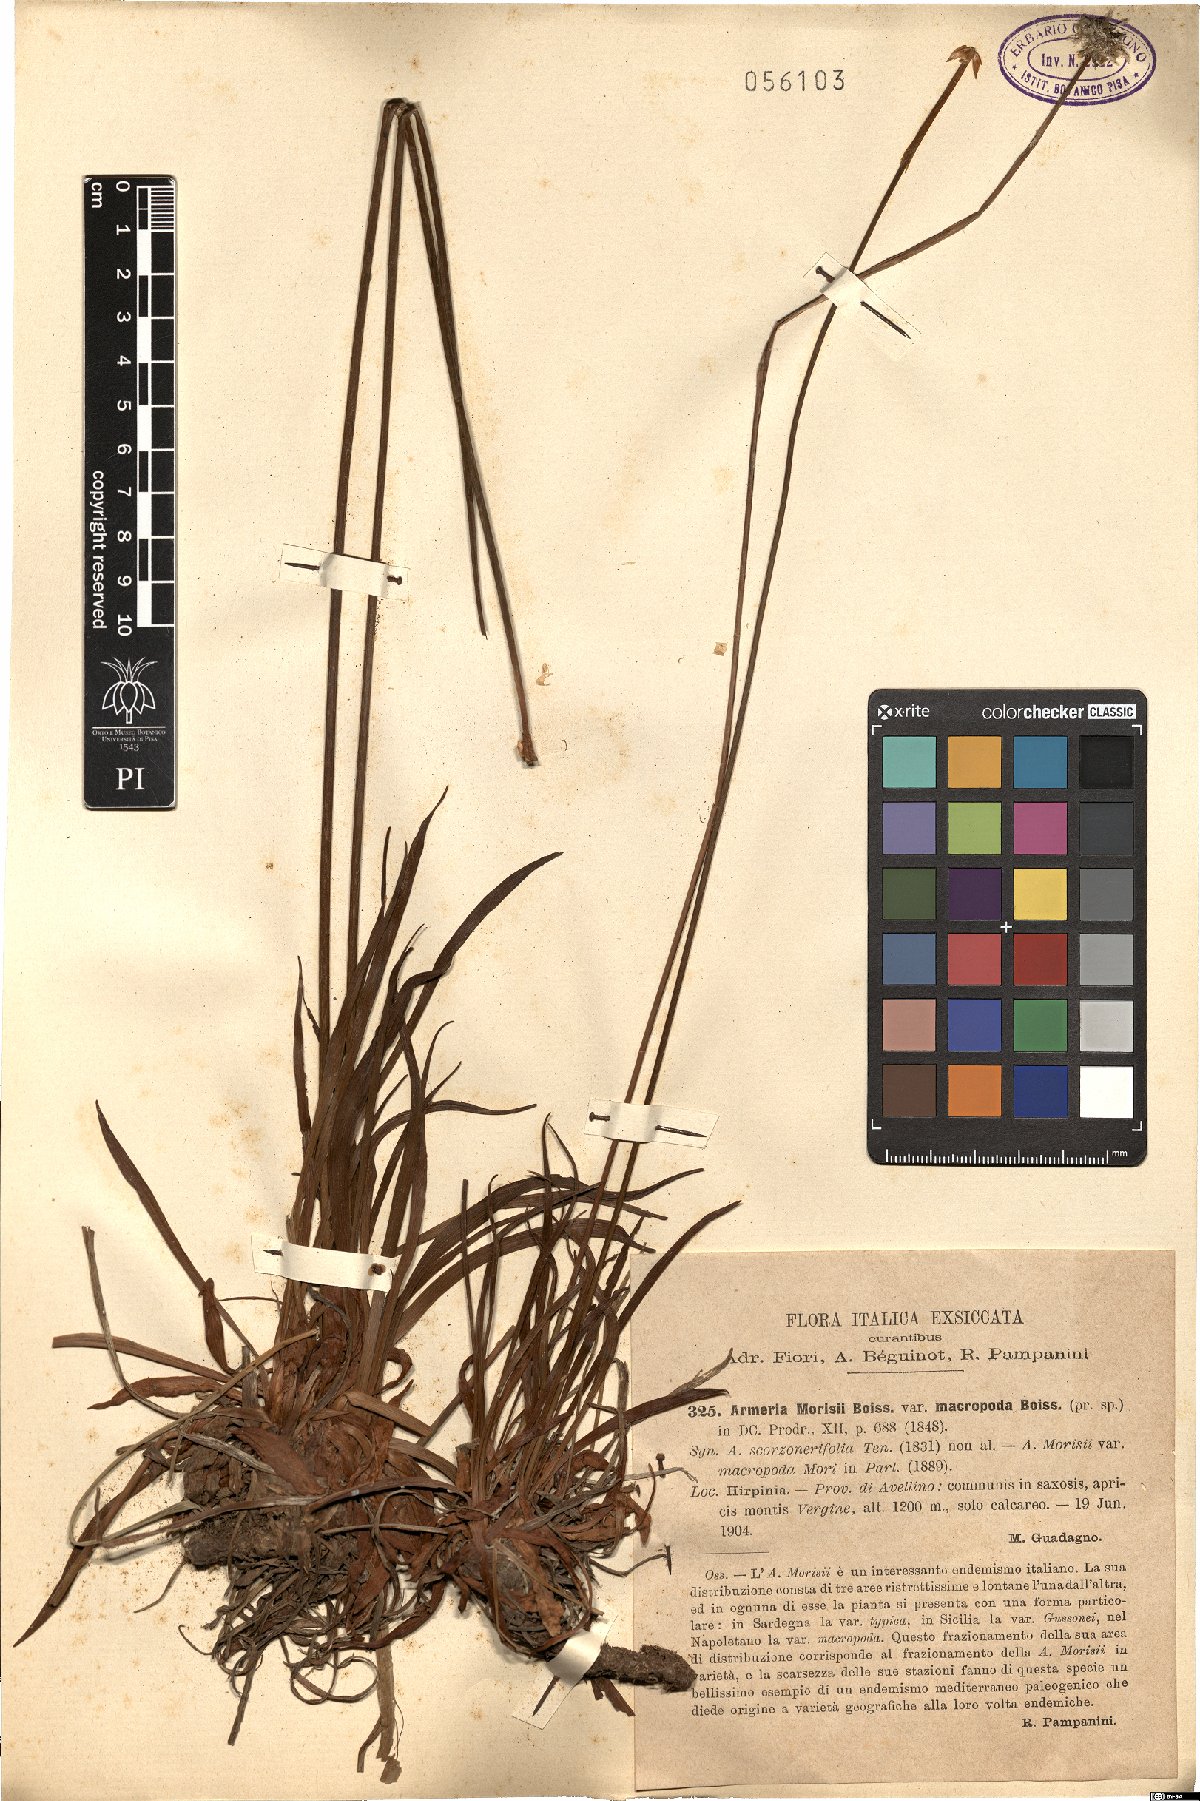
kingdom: Plantae
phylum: Tracheophyta
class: Magnoliopsida
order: Caryophyllales
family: Plumbaginaceae
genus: Armeria
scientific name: Armeria macropoda
